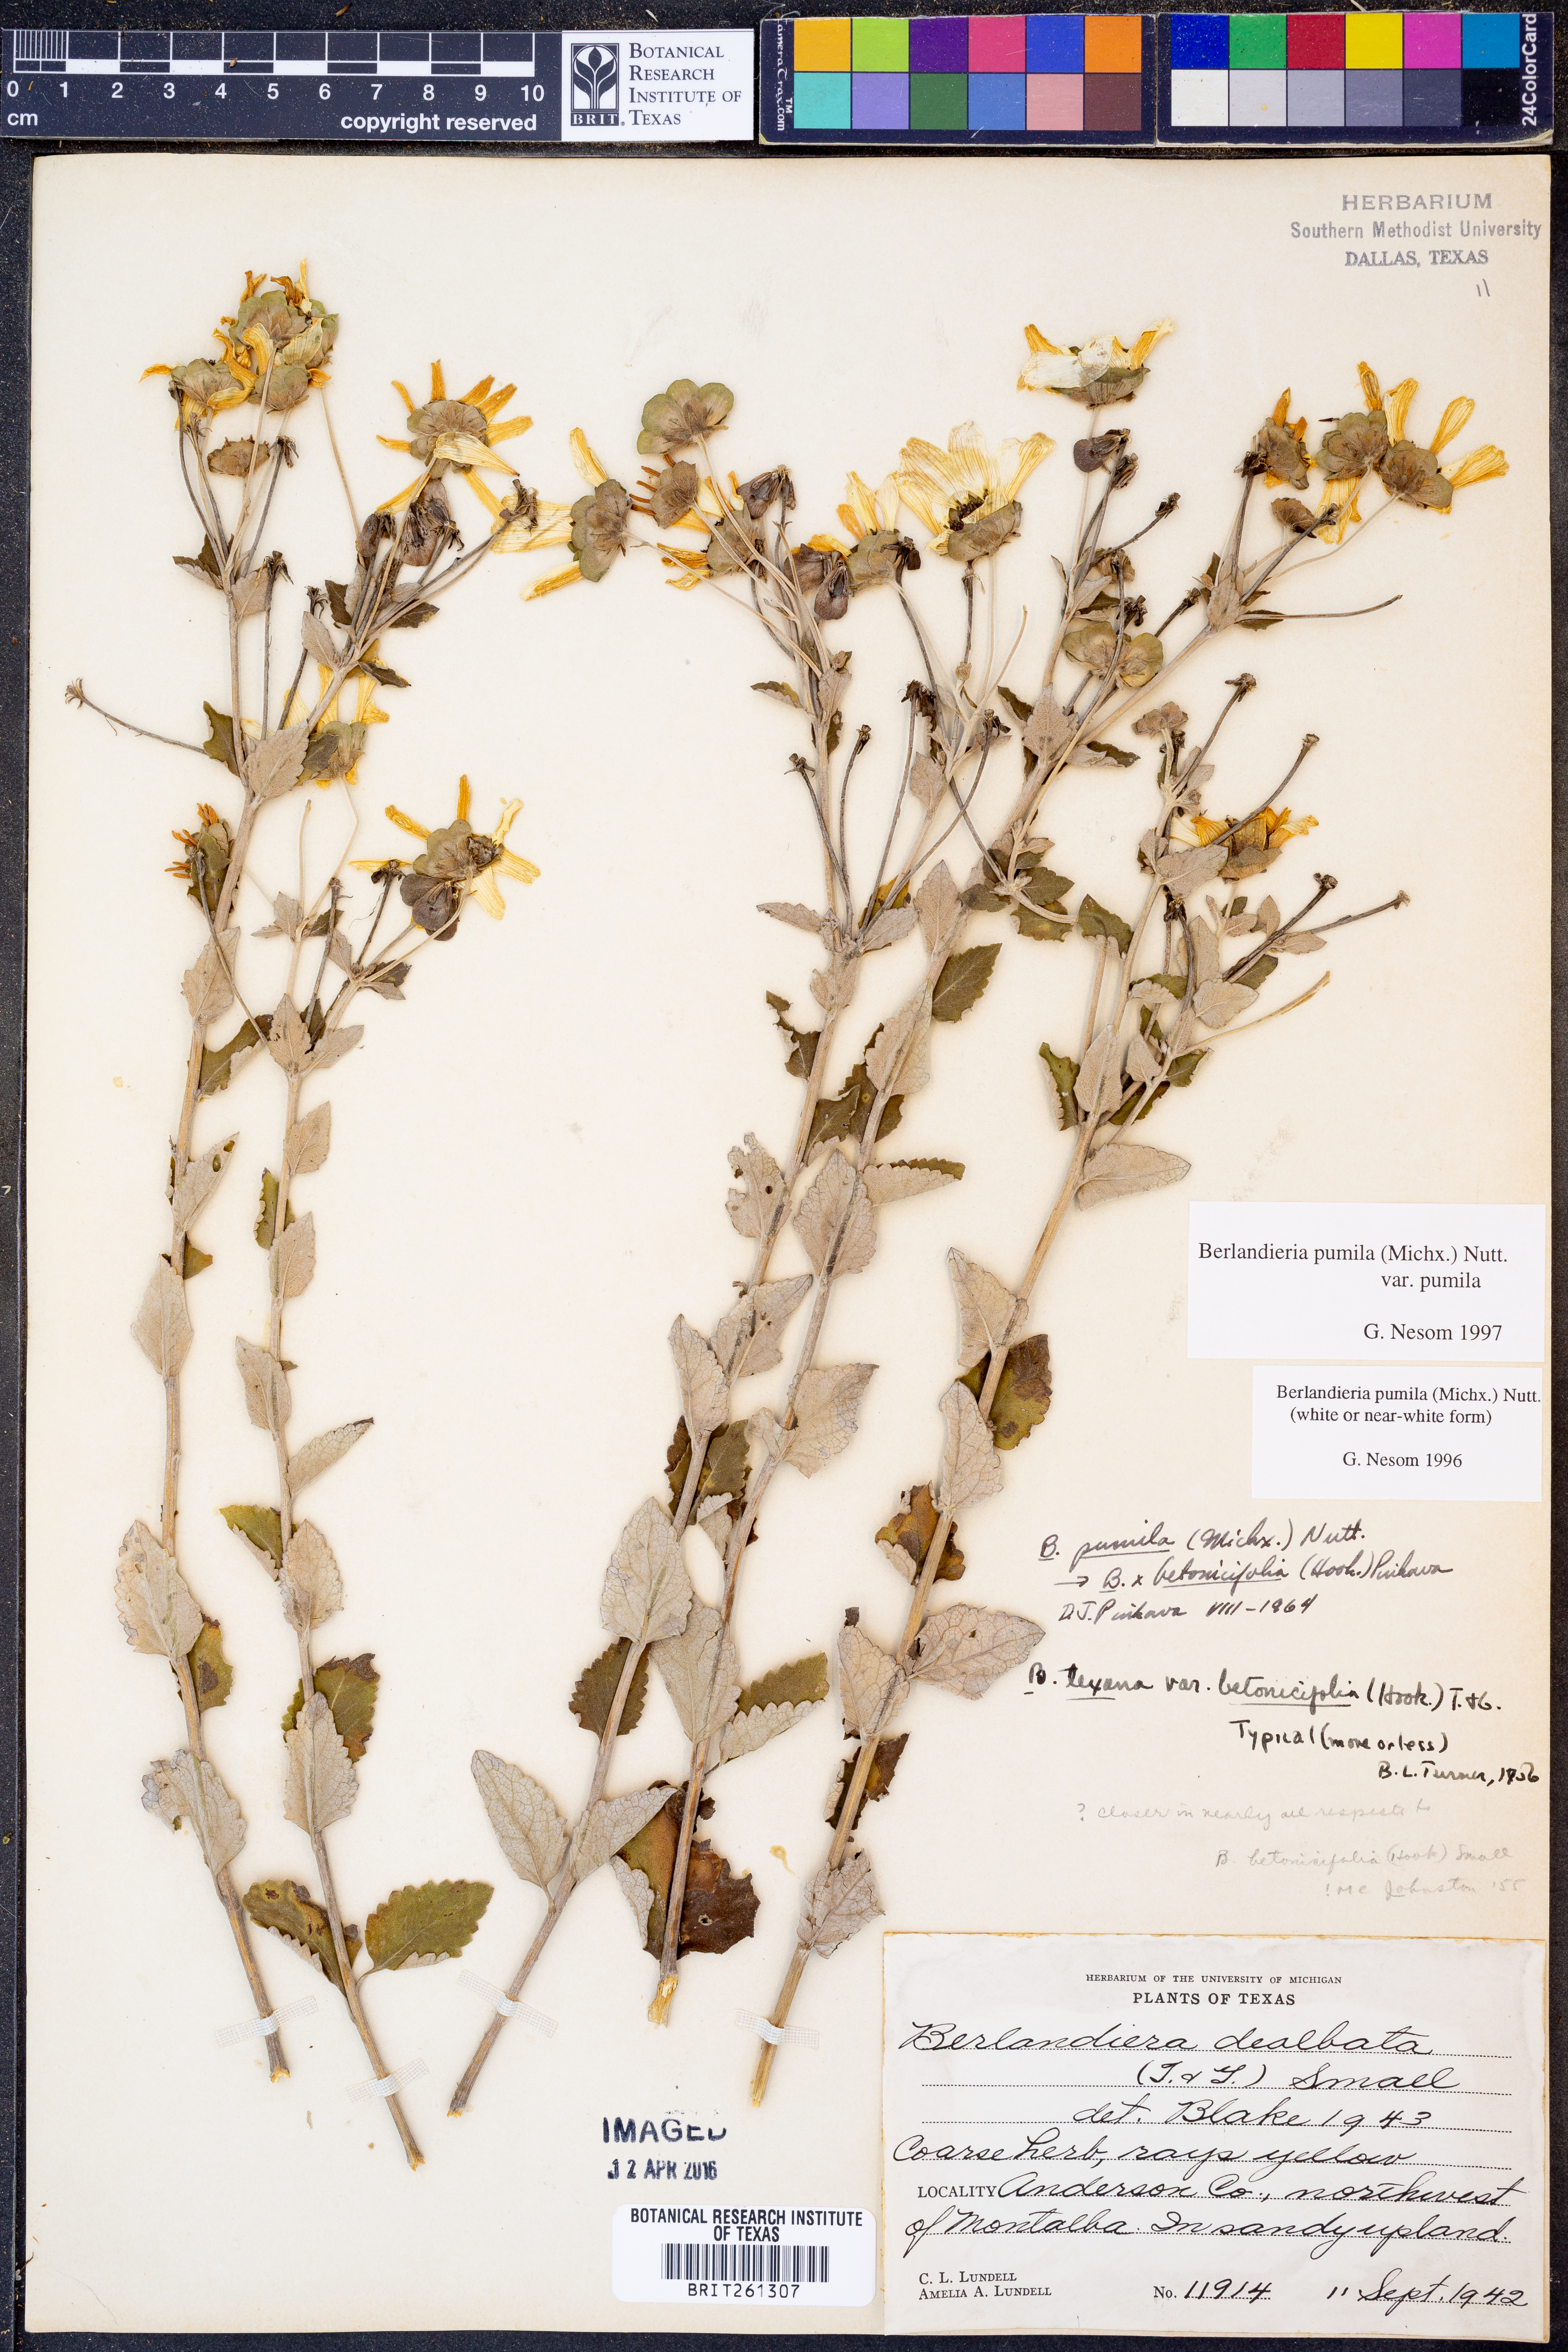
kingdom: Plantae
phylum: Tracheophyta
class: Magnoliopsida
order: Asterales
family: Asteraceae
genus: Berlandiera
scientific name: Berlandiera pumila
